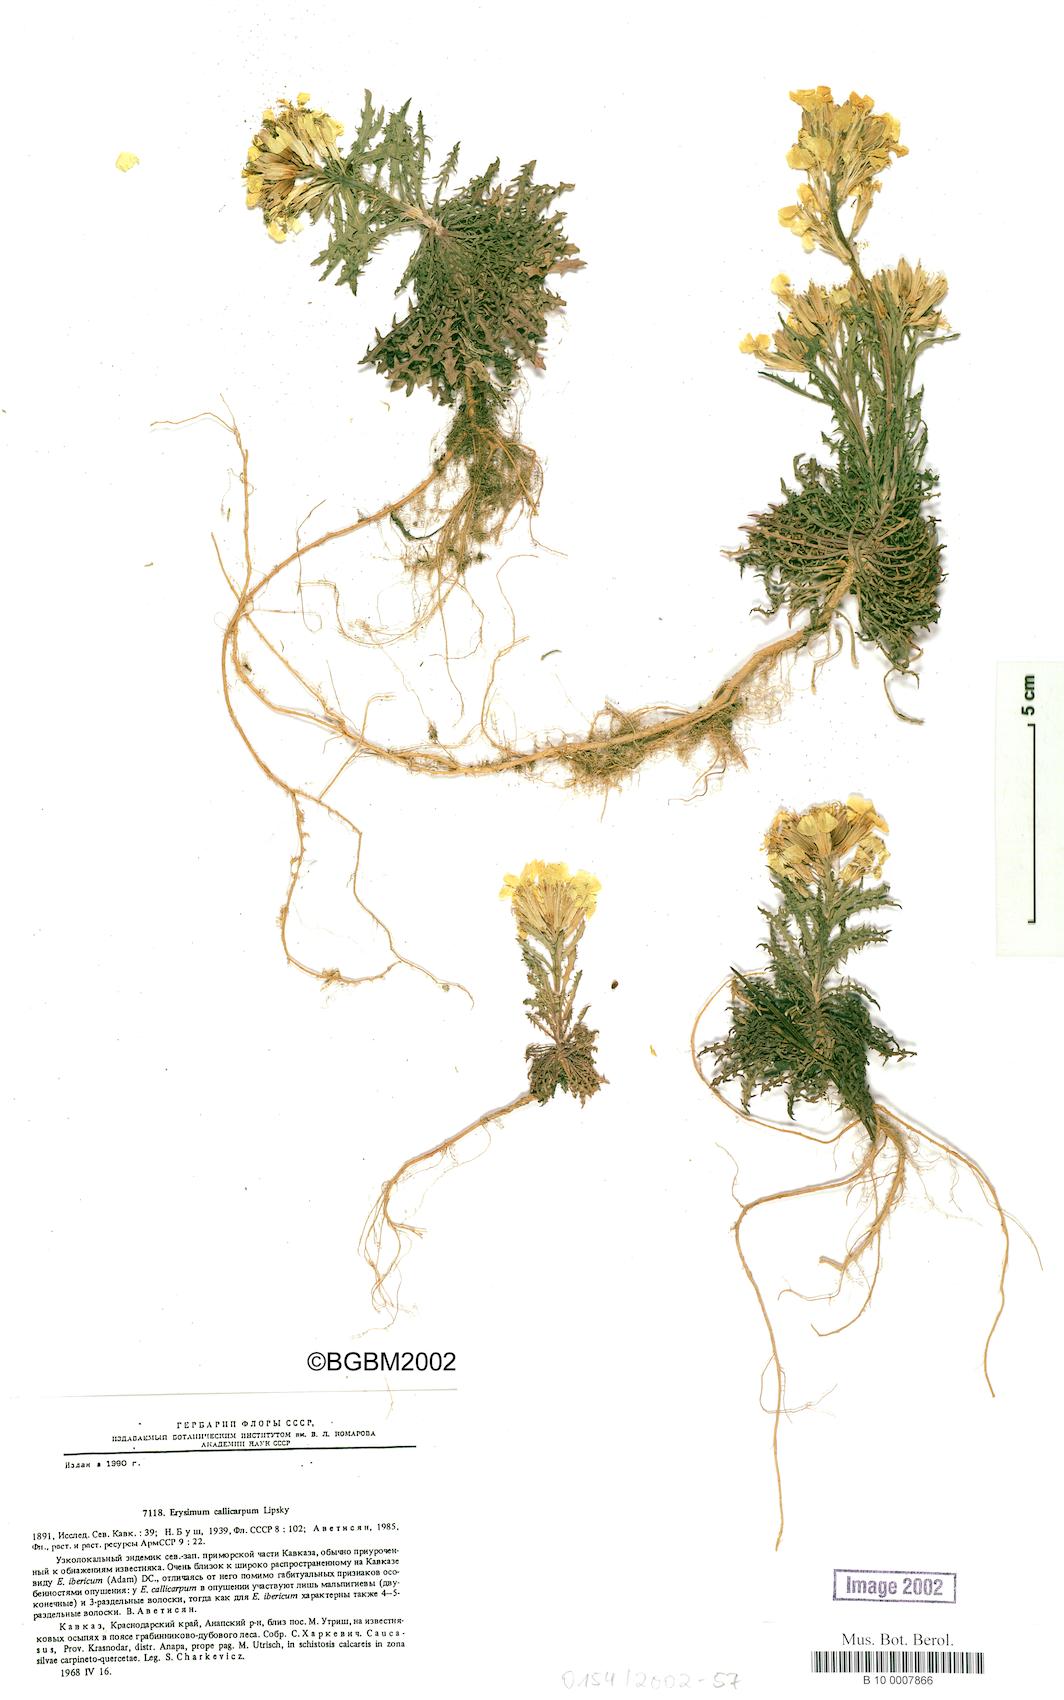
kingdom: Plantae
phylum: Tracheophyta
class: Magnoliopsida
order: Brassicales
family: Brassicaceae
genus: Erysimum
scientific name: Erysimum callicarpum
